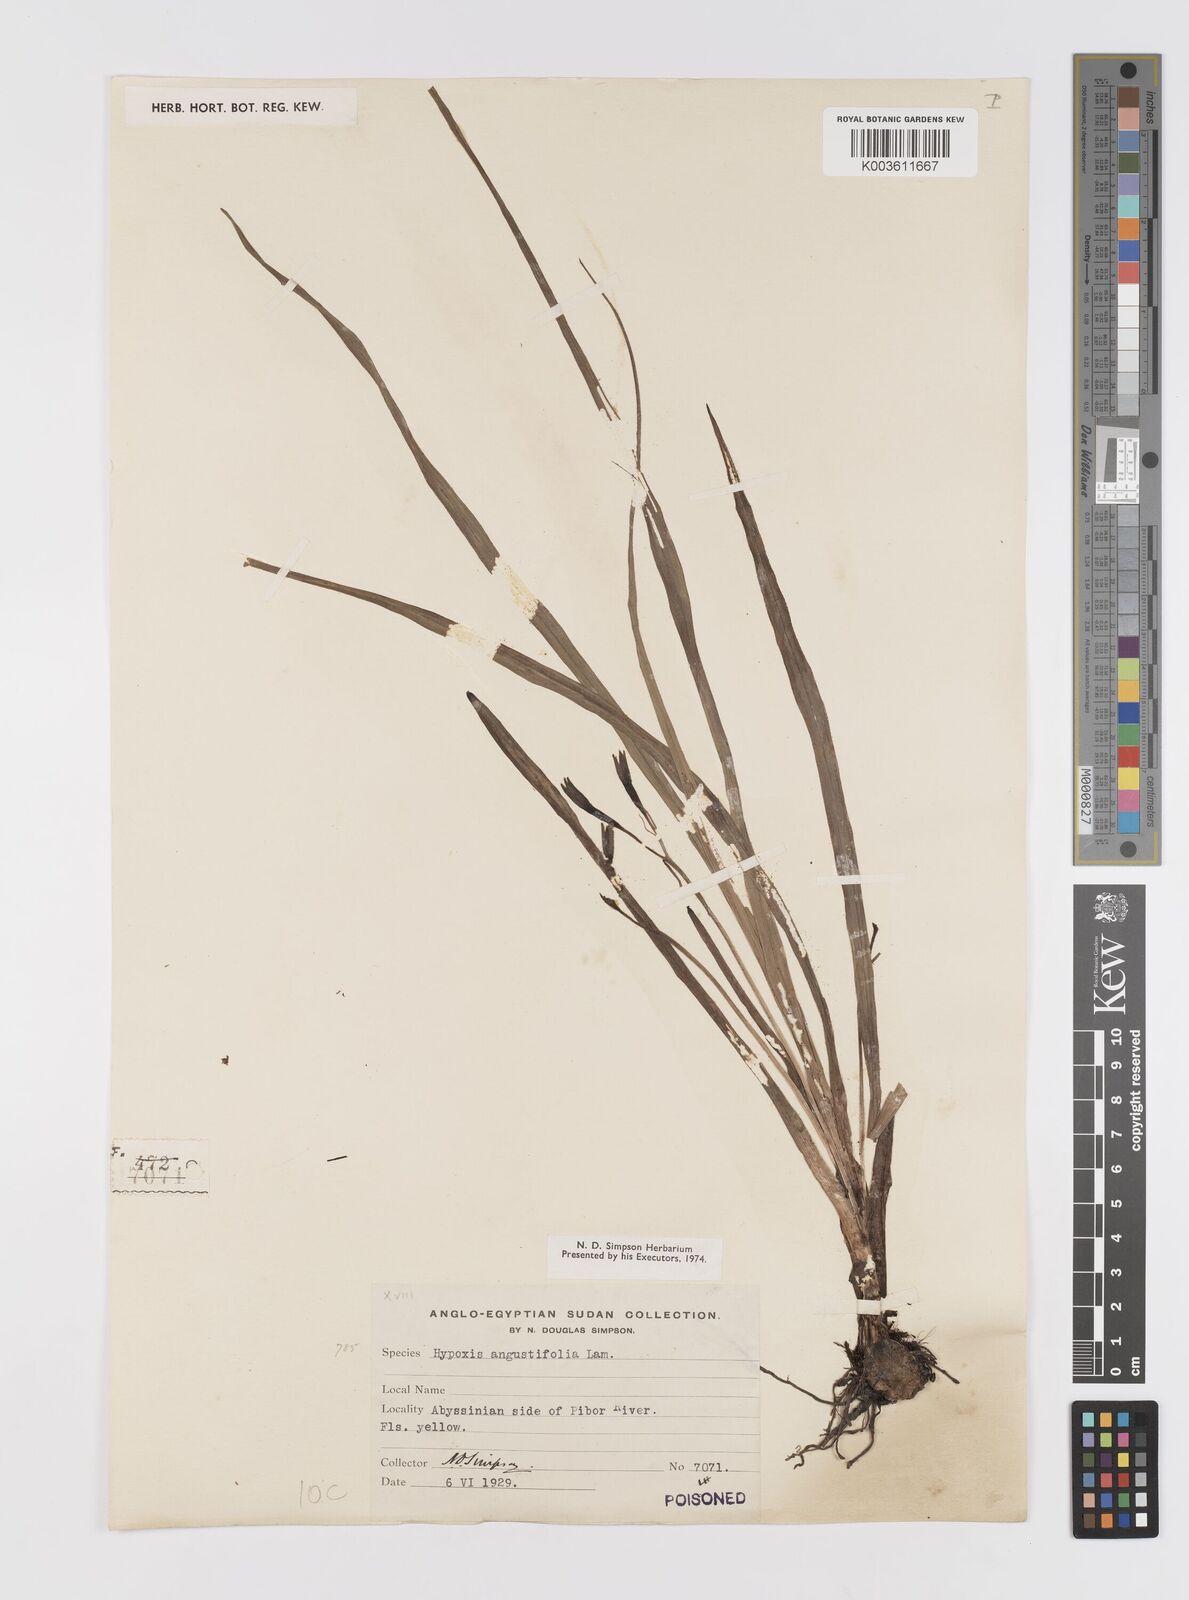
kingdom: Plantae
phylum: Tracheophyta
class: Liliopsida
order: Asparagales
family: Hypoxidaceae
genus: Hypoxis
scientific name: Hypoxis angustifolia
